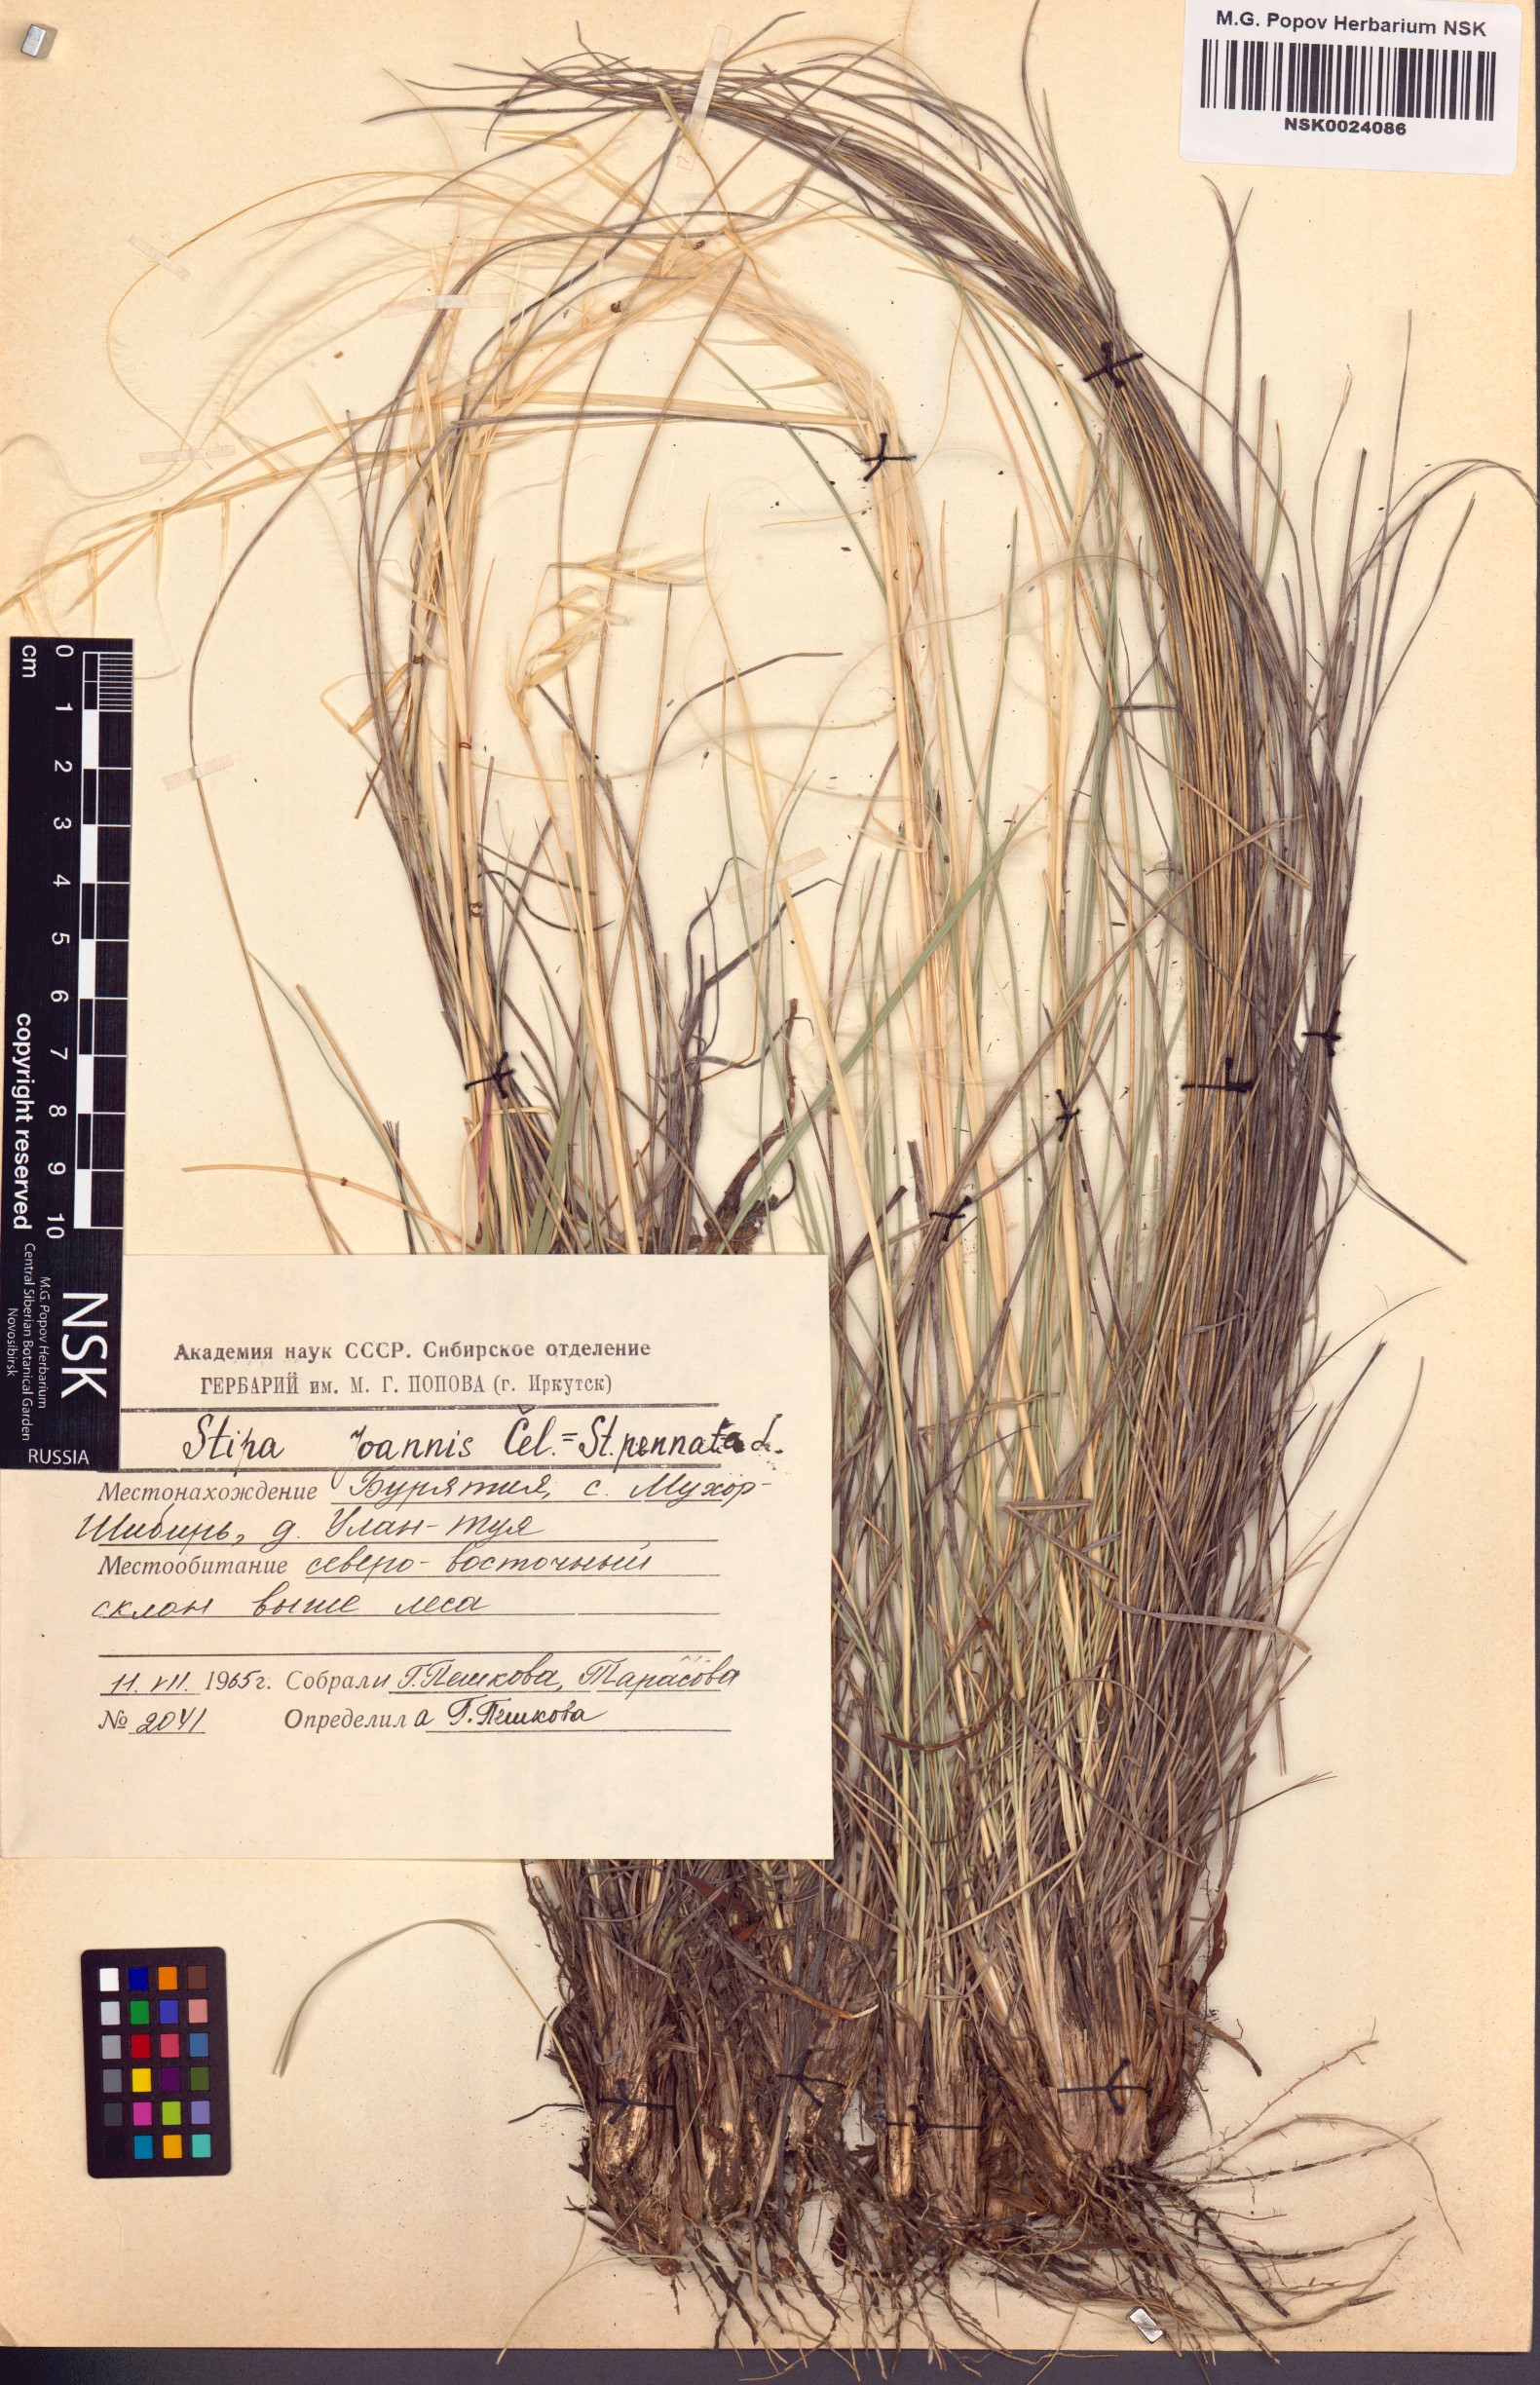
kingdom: Plantae
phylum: Tracheophyta
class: Liliopsida
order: Poales
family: Poaceae
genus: Stipa
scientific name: Stipa pennata
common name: European feather grass
